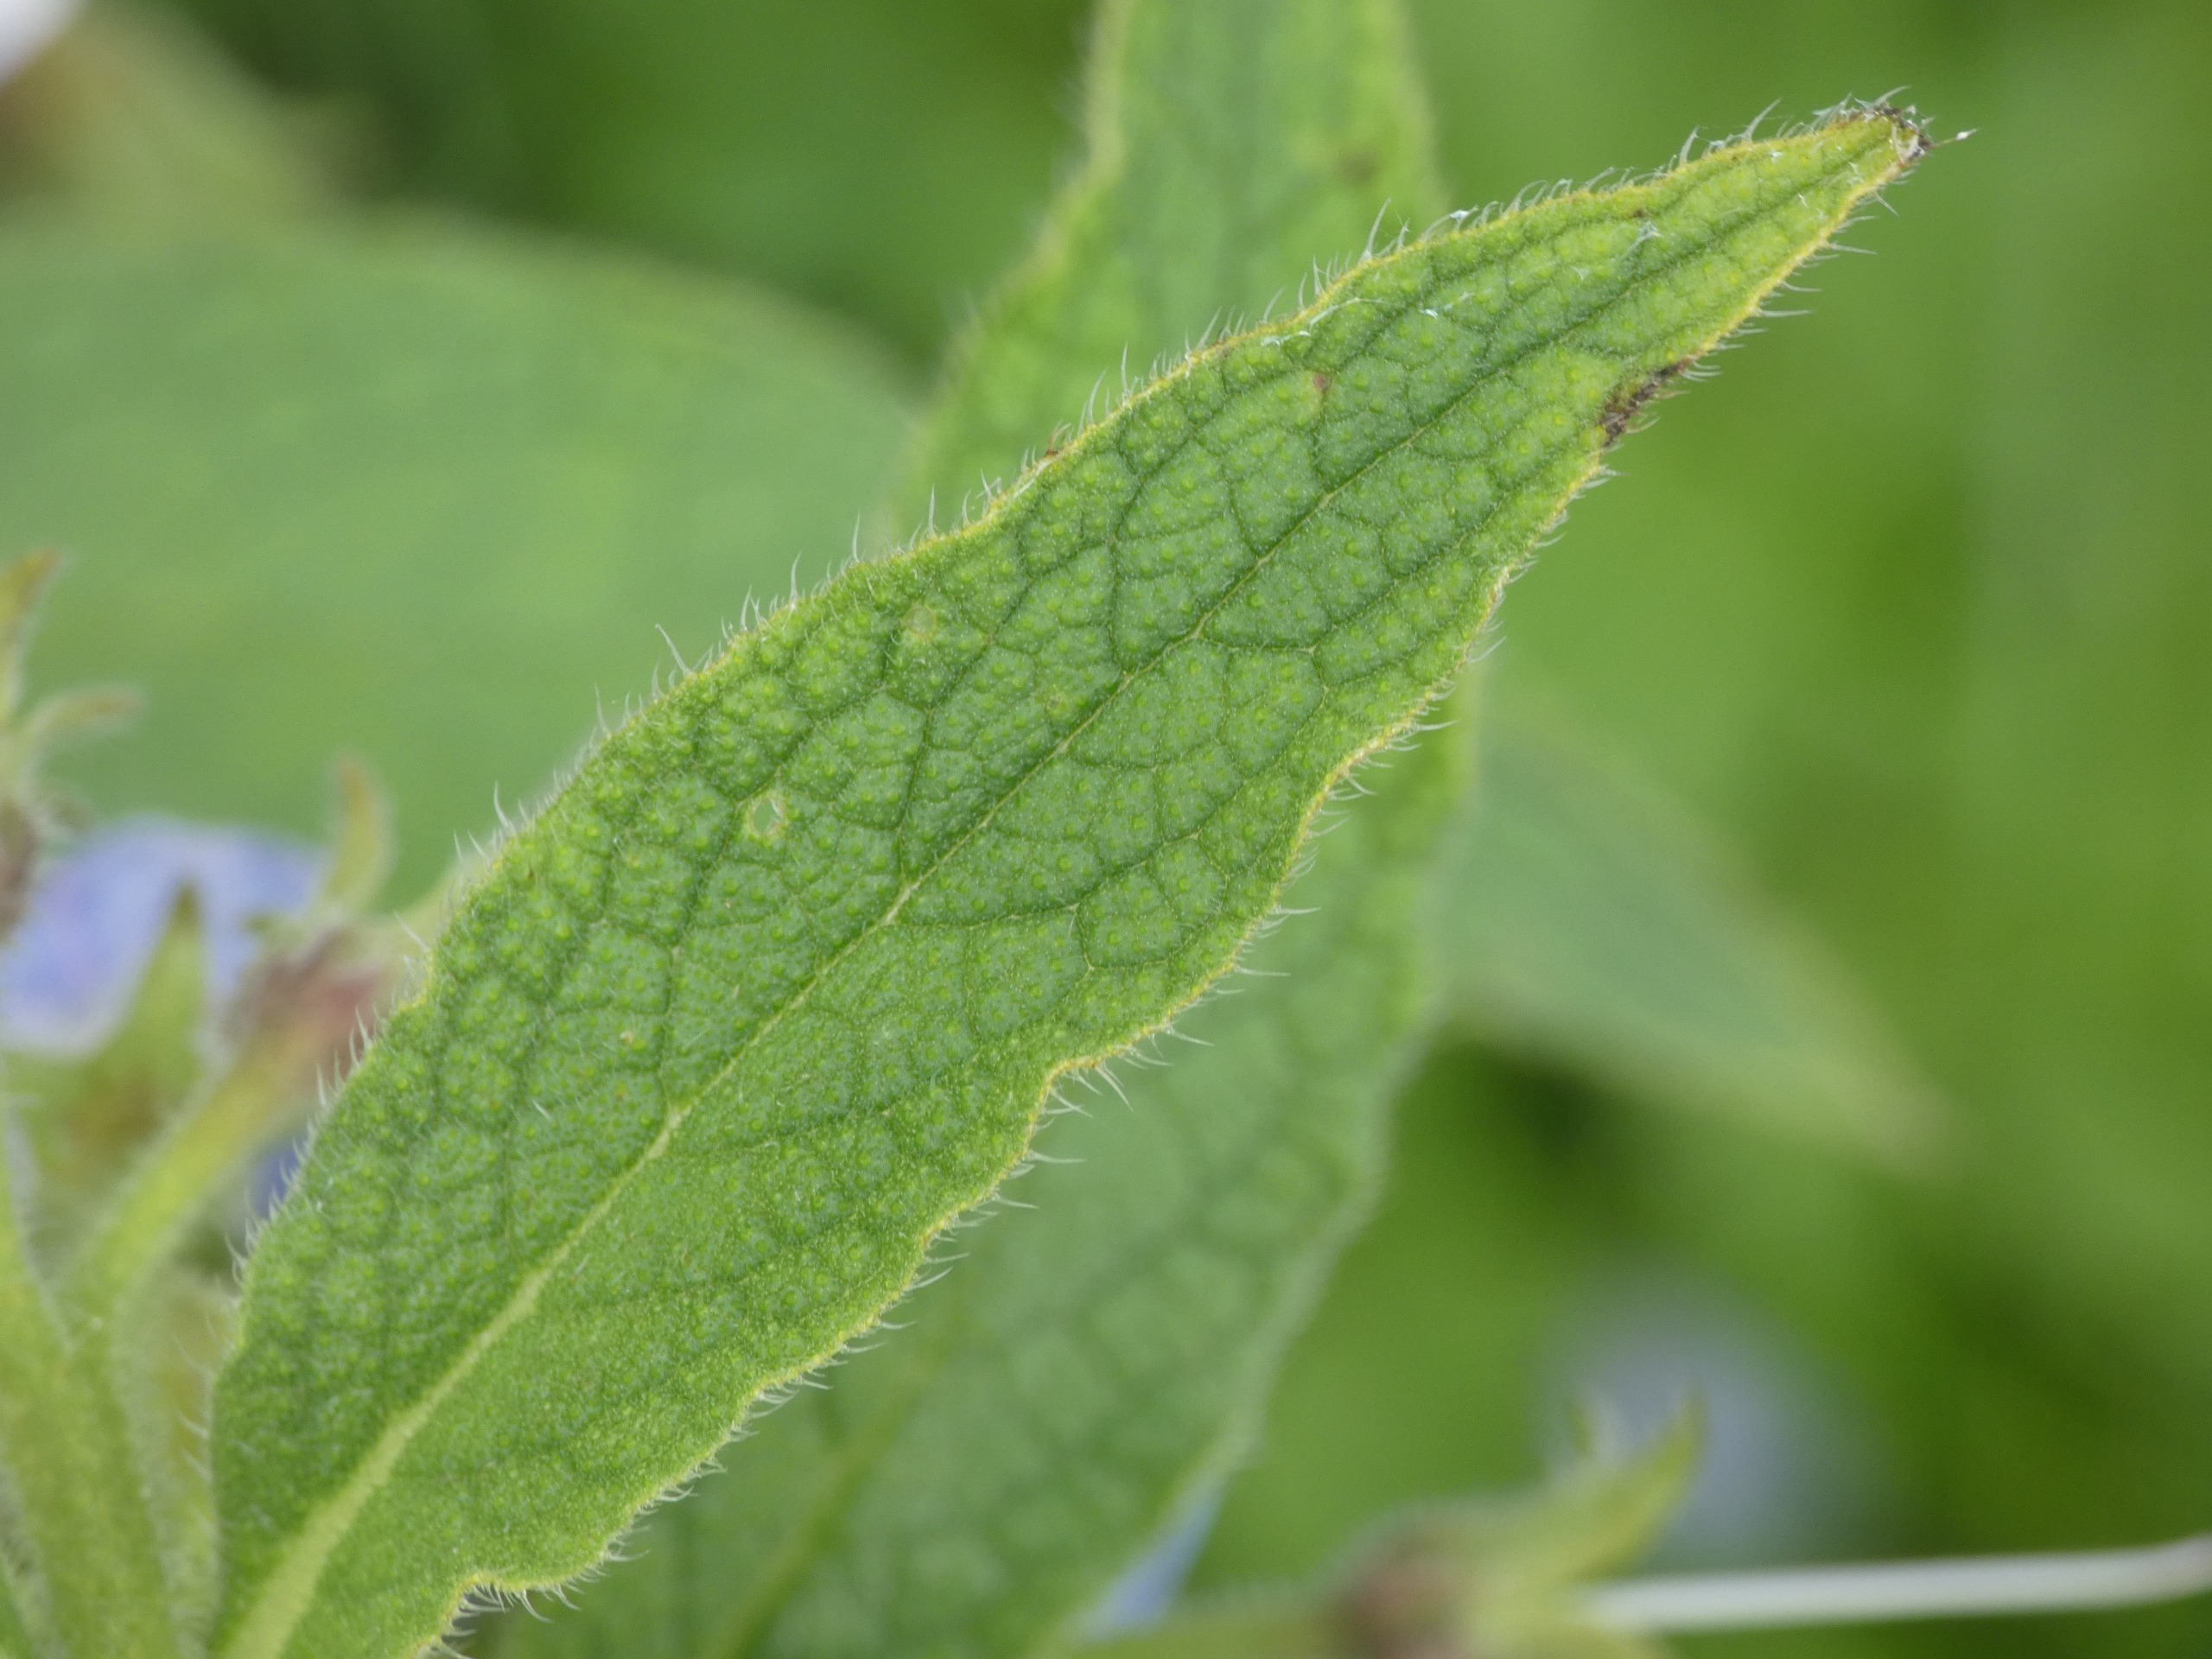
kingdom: Plantae
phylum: Tracheophyta
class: Magnoliopsida
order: Boraginales
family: Boraginaceae
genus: Symphytum
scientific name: Symphytum uplandicum
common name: Foder-kulsukker
